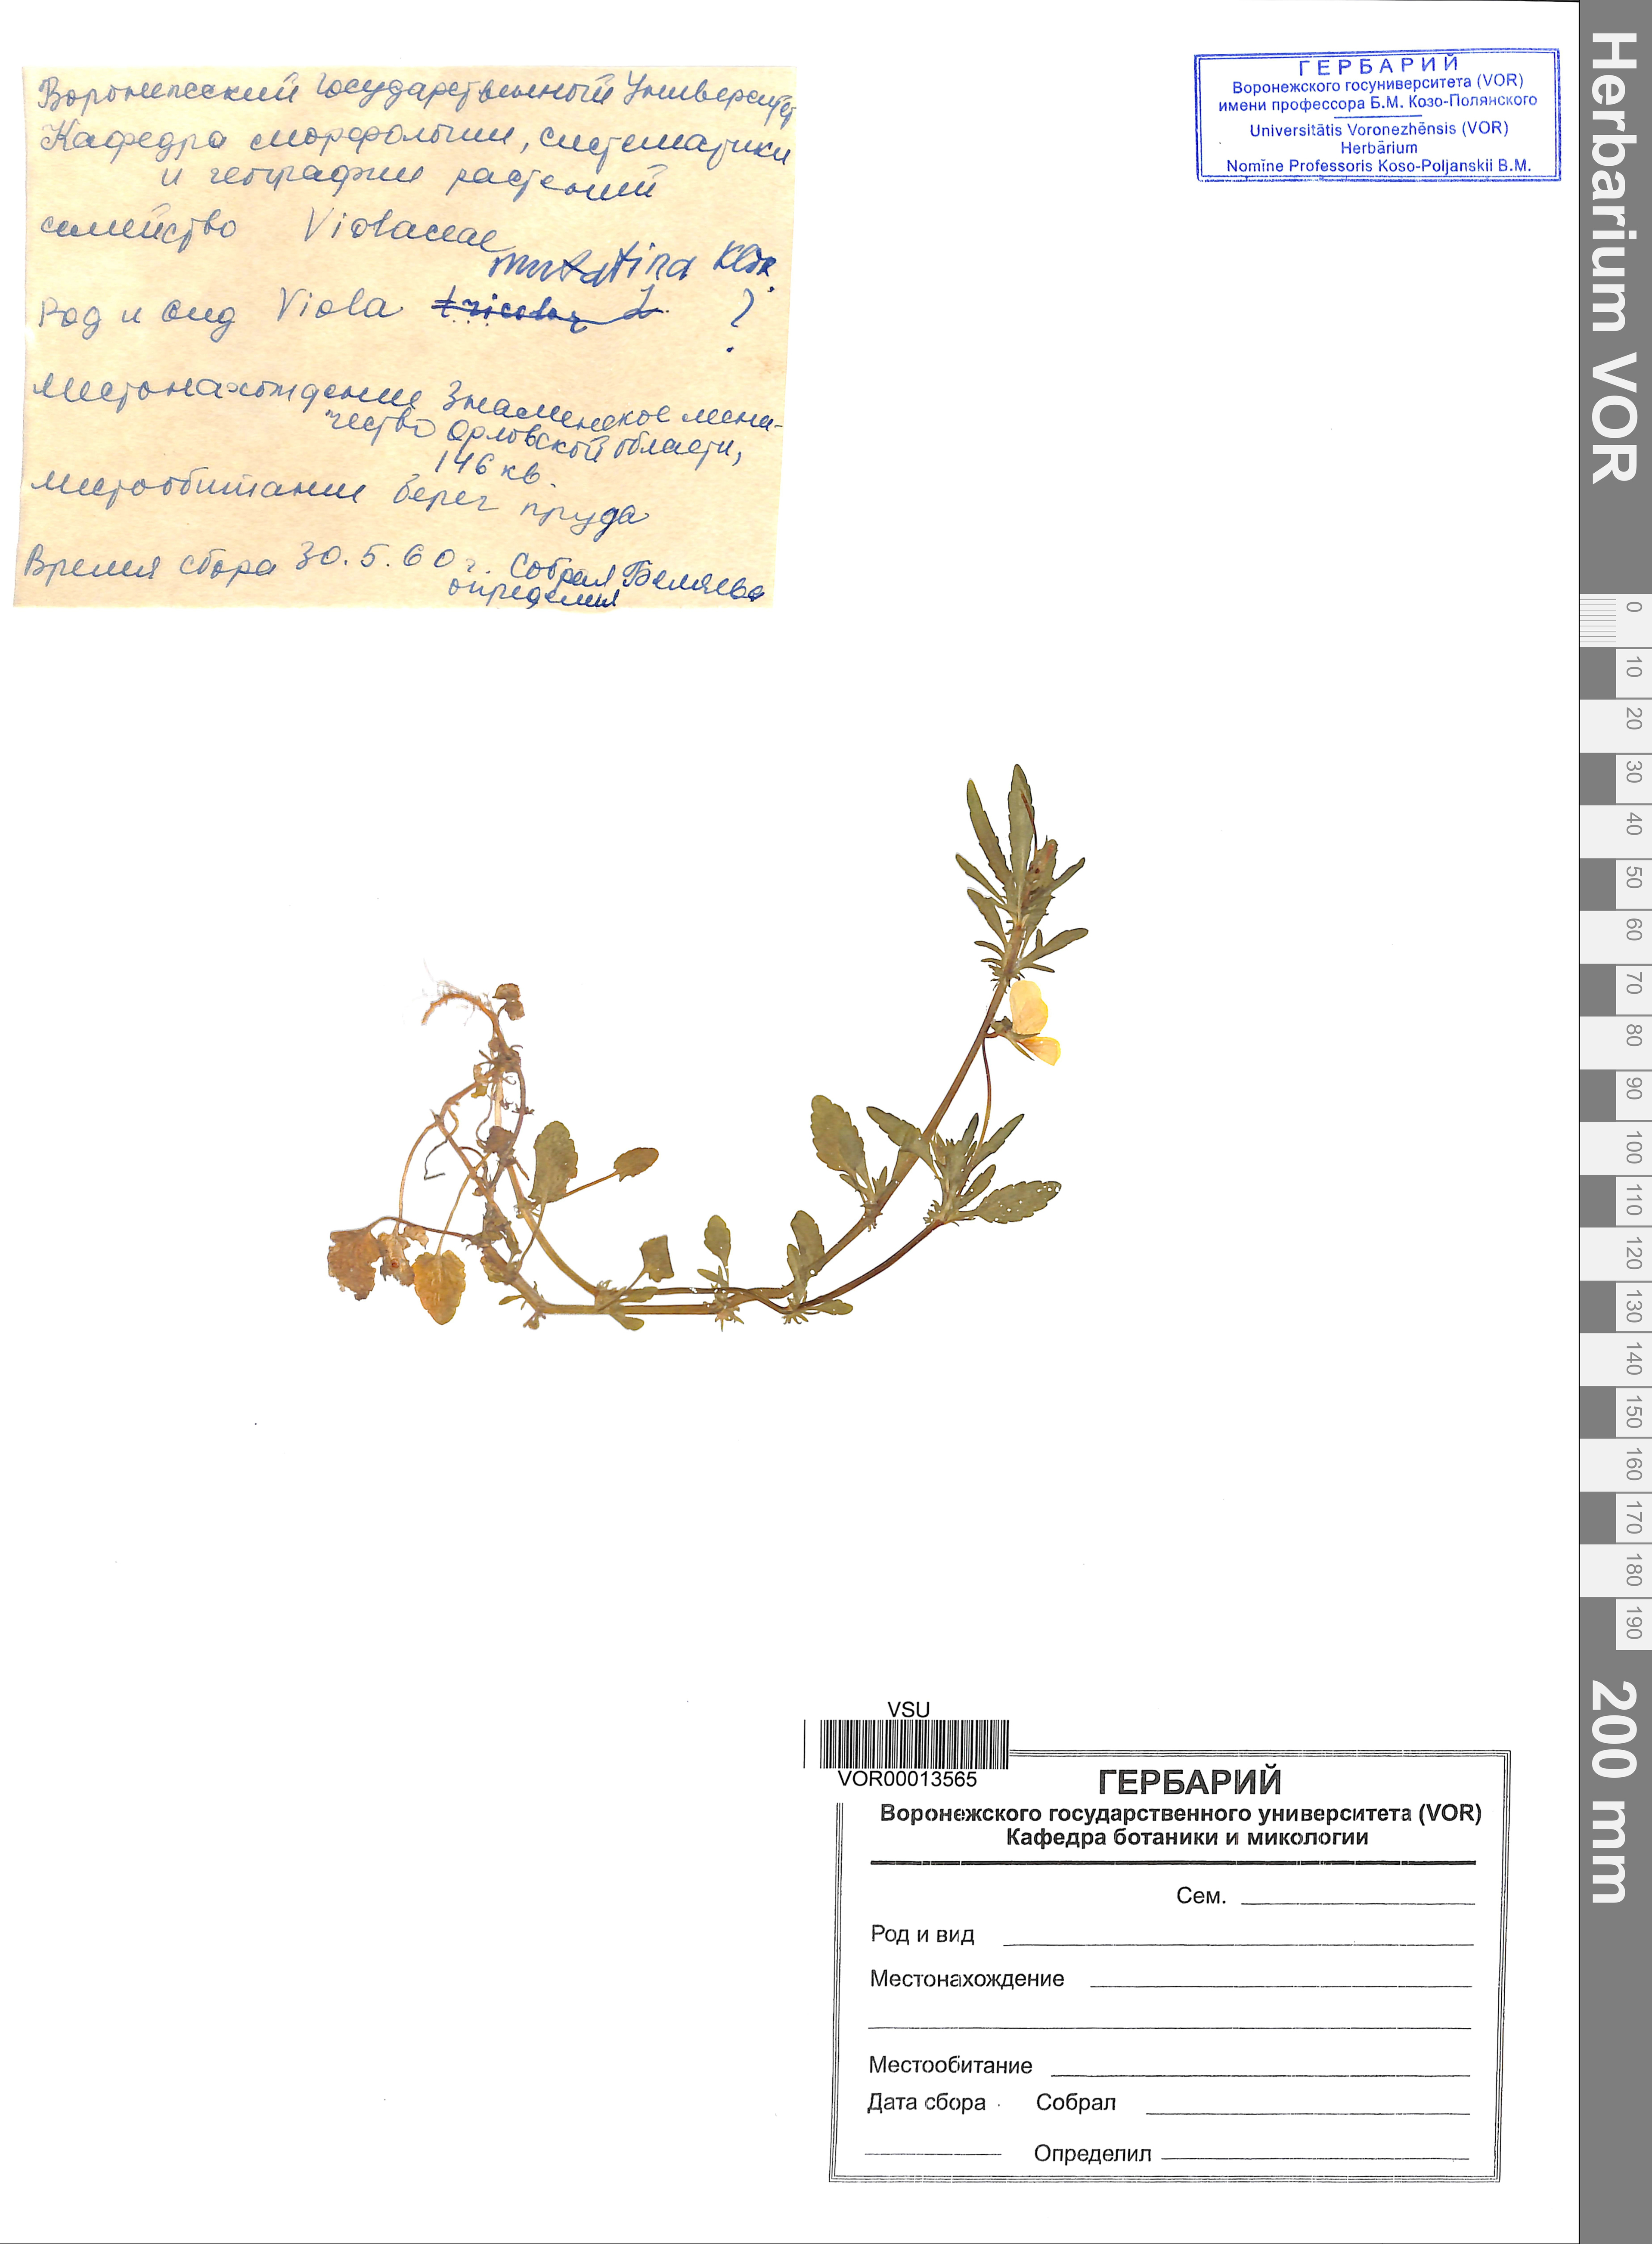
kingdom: Plantae
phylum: Tracheophyta
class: Magnoliopsida
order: Malpighiales
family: Violaceae
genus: Viola
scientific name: Viola tricolor
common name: Pansy
